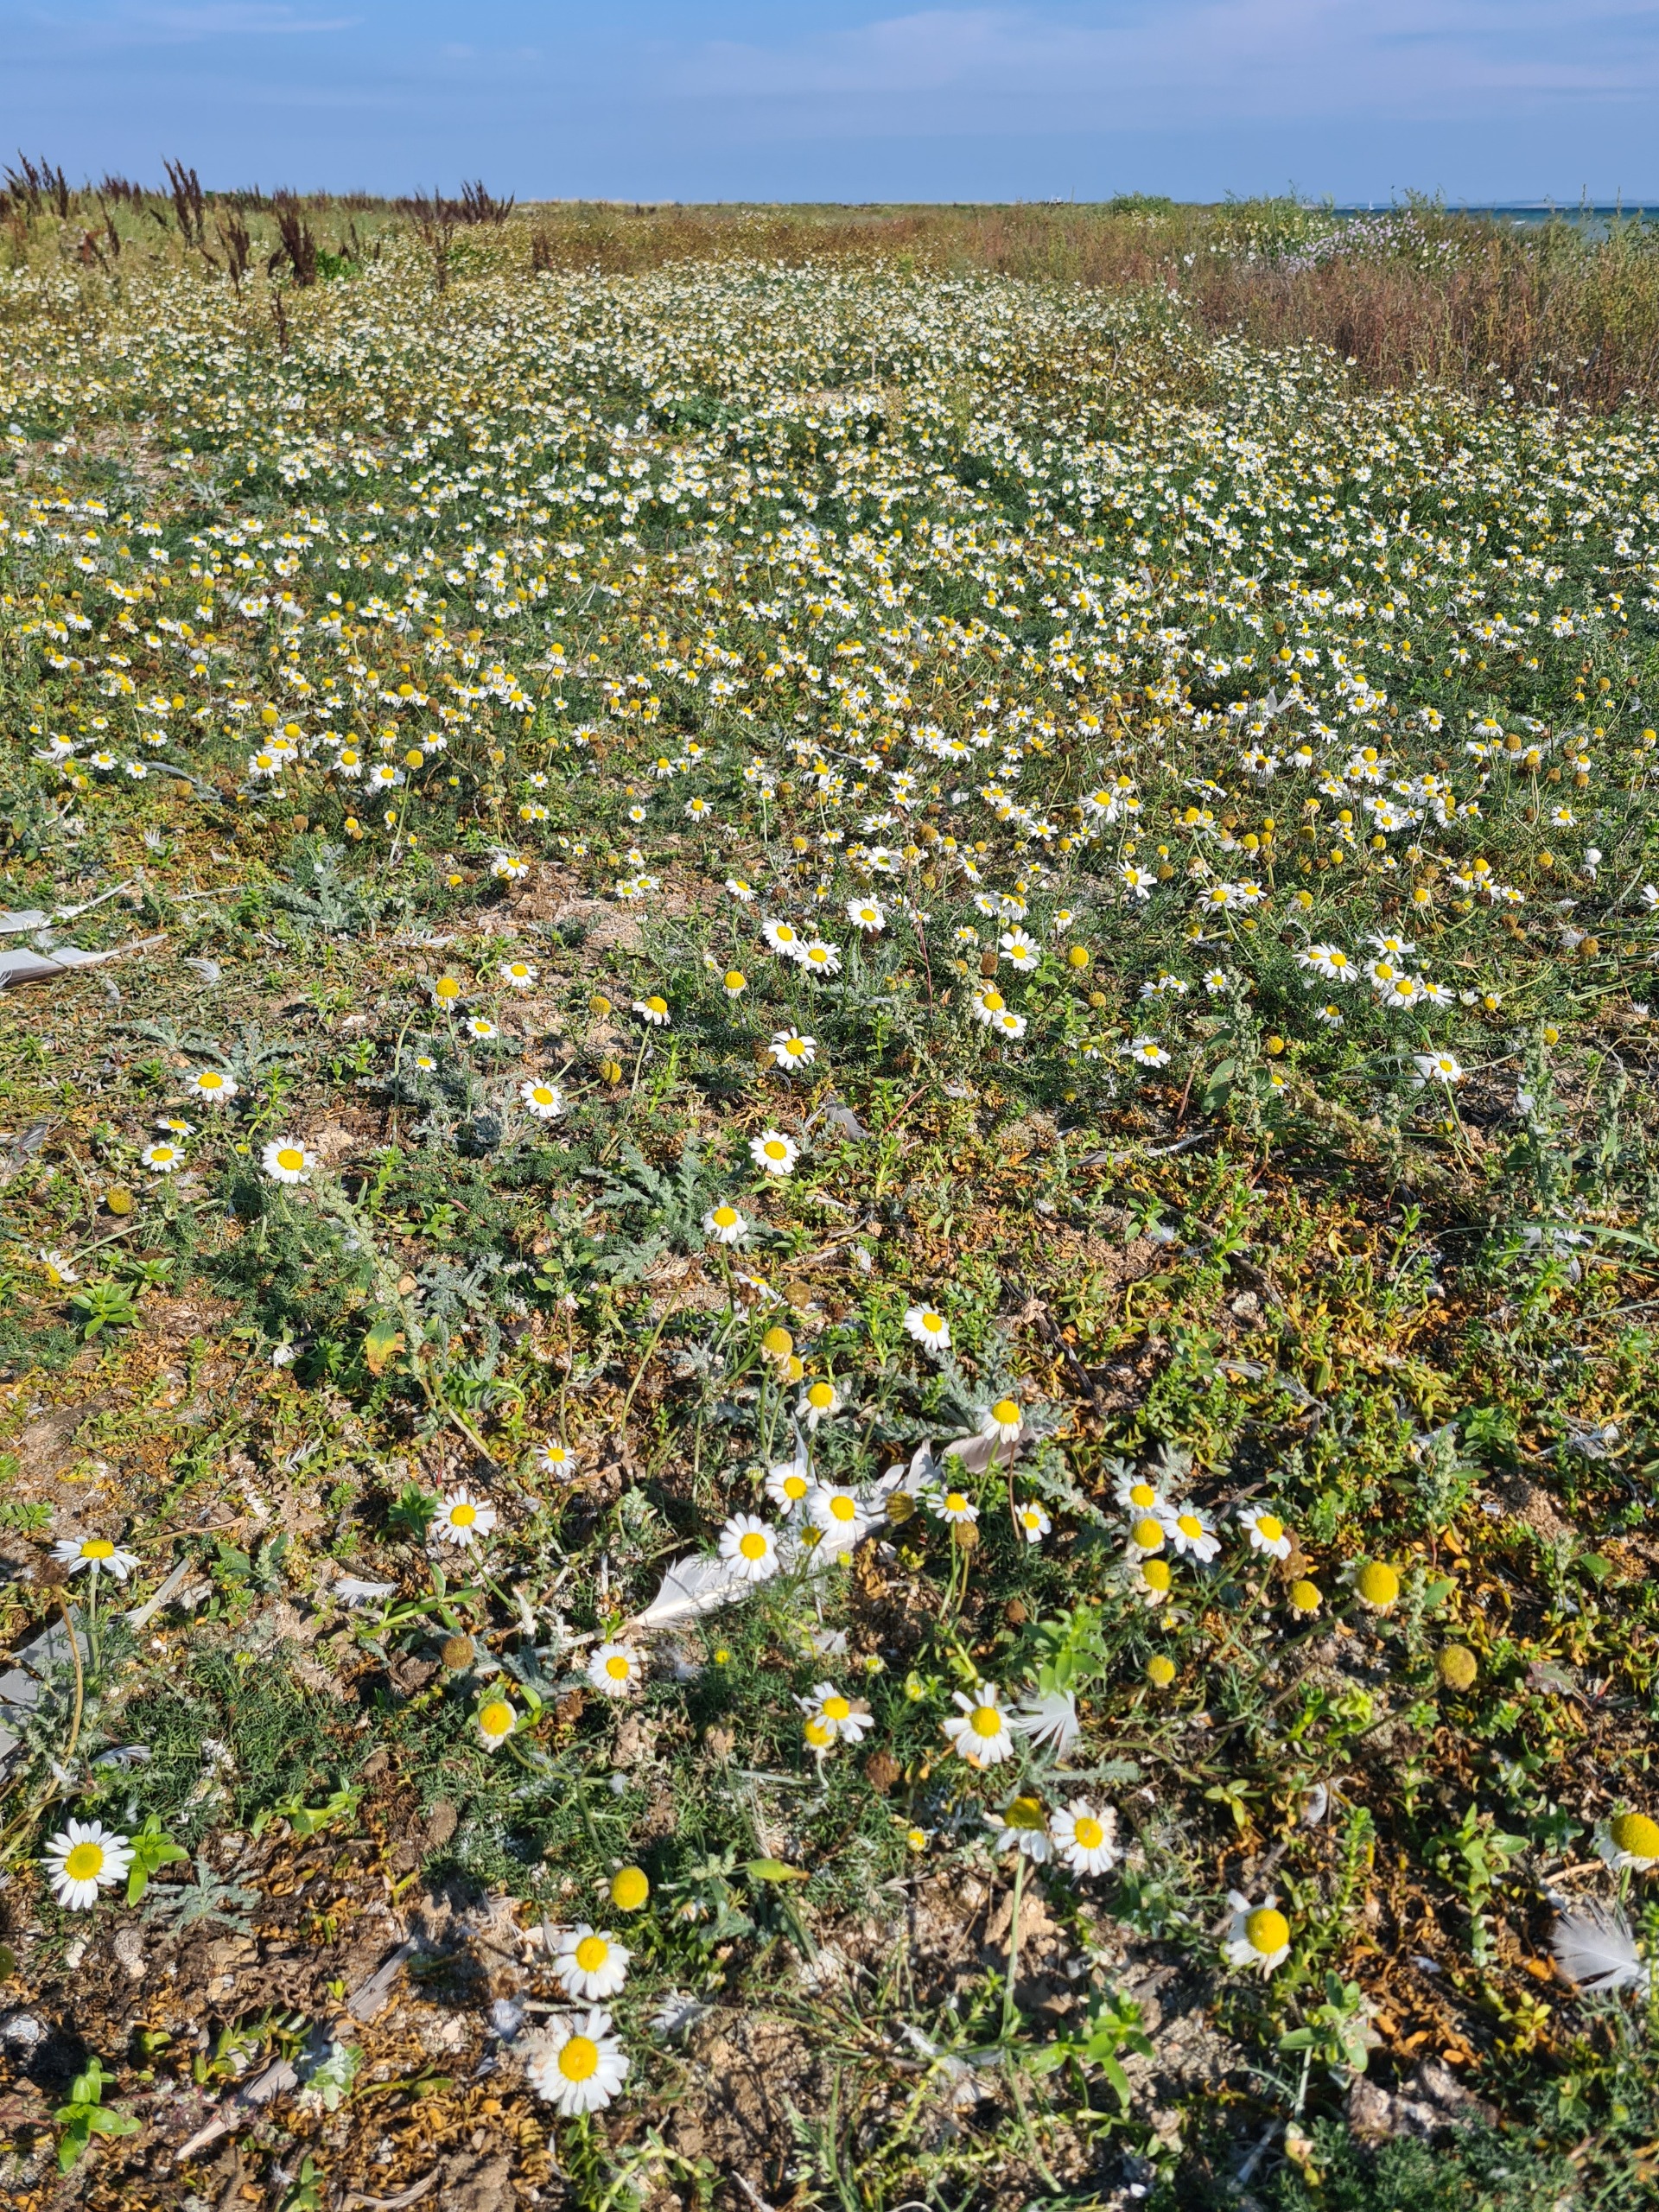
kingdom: Plantae
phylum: Tracheophyta
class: Magnoliopsida
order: Asterales
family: Asteraceae
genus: Tripleurospermum
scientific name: Tripleurospermum inodorum
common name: Lugtløs kamille
